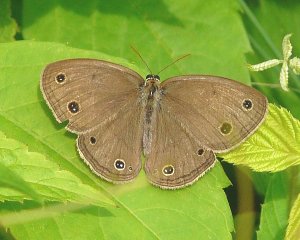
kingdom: Animalia
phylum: Arthropoda
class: Insecta
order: Lepidoptera
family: Nymphalidae
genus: Euptychia
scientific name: Euptychia cymela
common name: Little Wood Satyr
